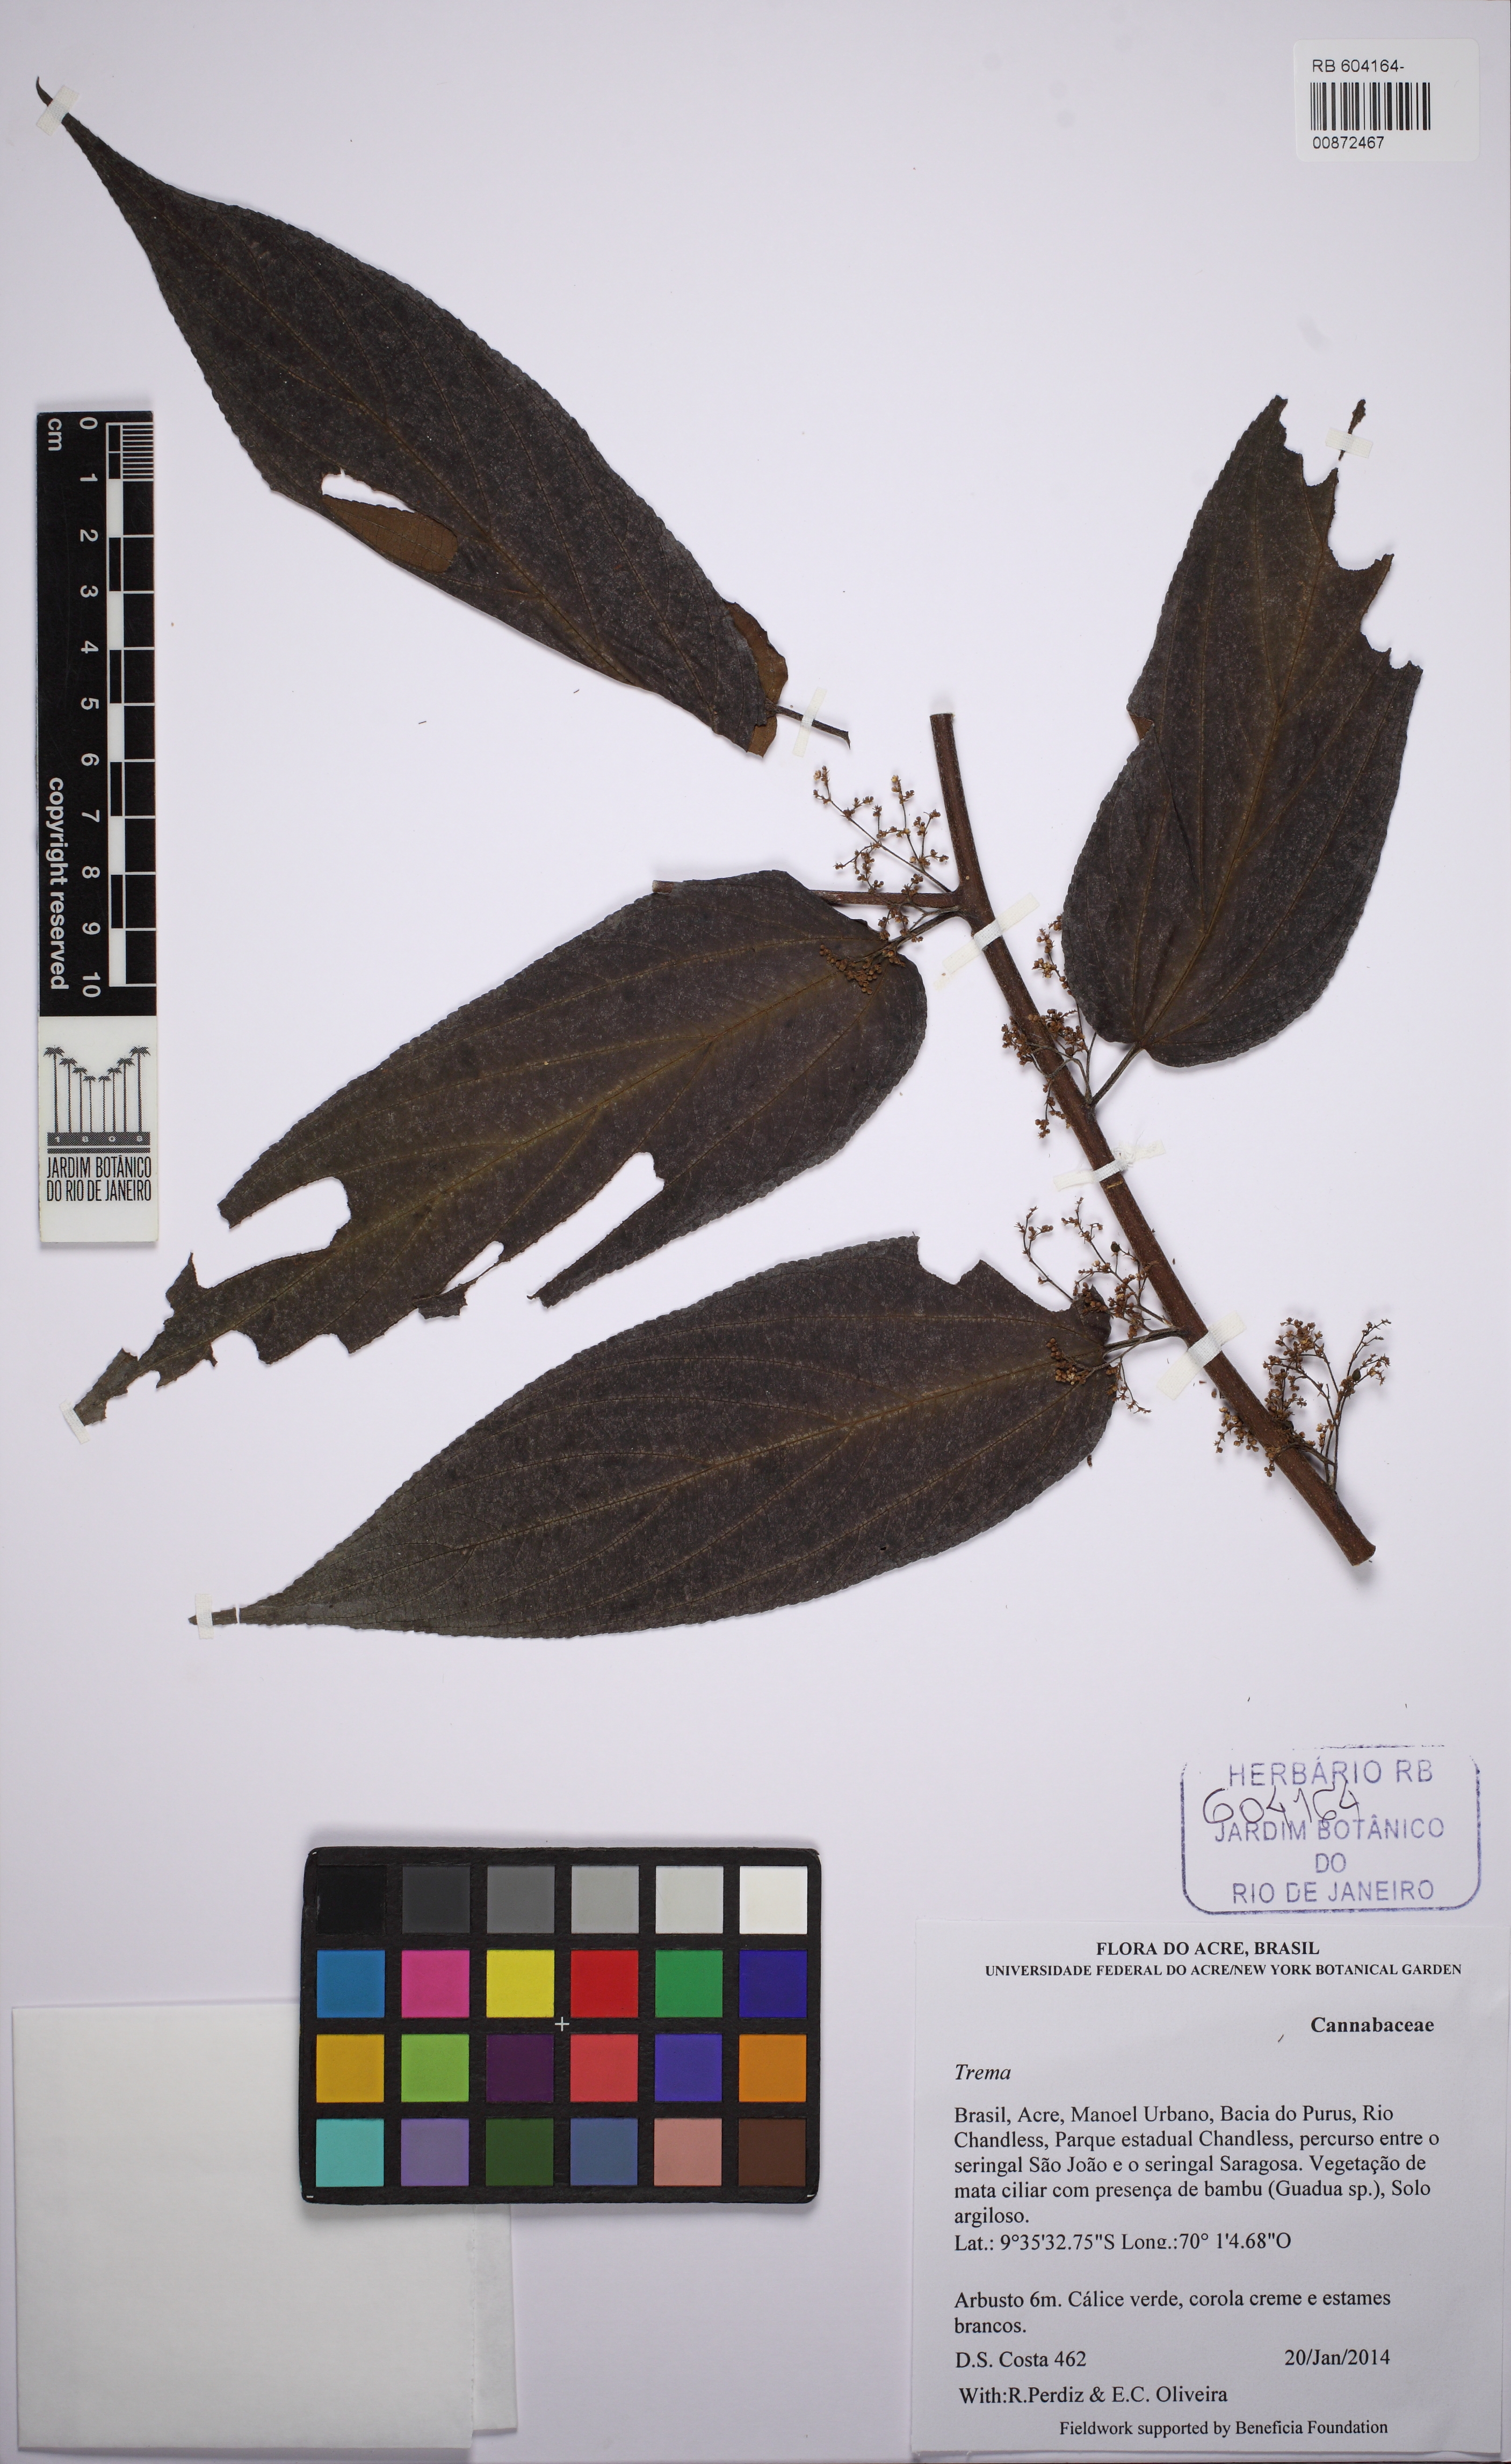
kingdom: Plantae
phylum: Tracheophyta
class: Magnoliopsida
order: Rosales
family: Cannabaceae
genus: Trema
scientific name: Trema
